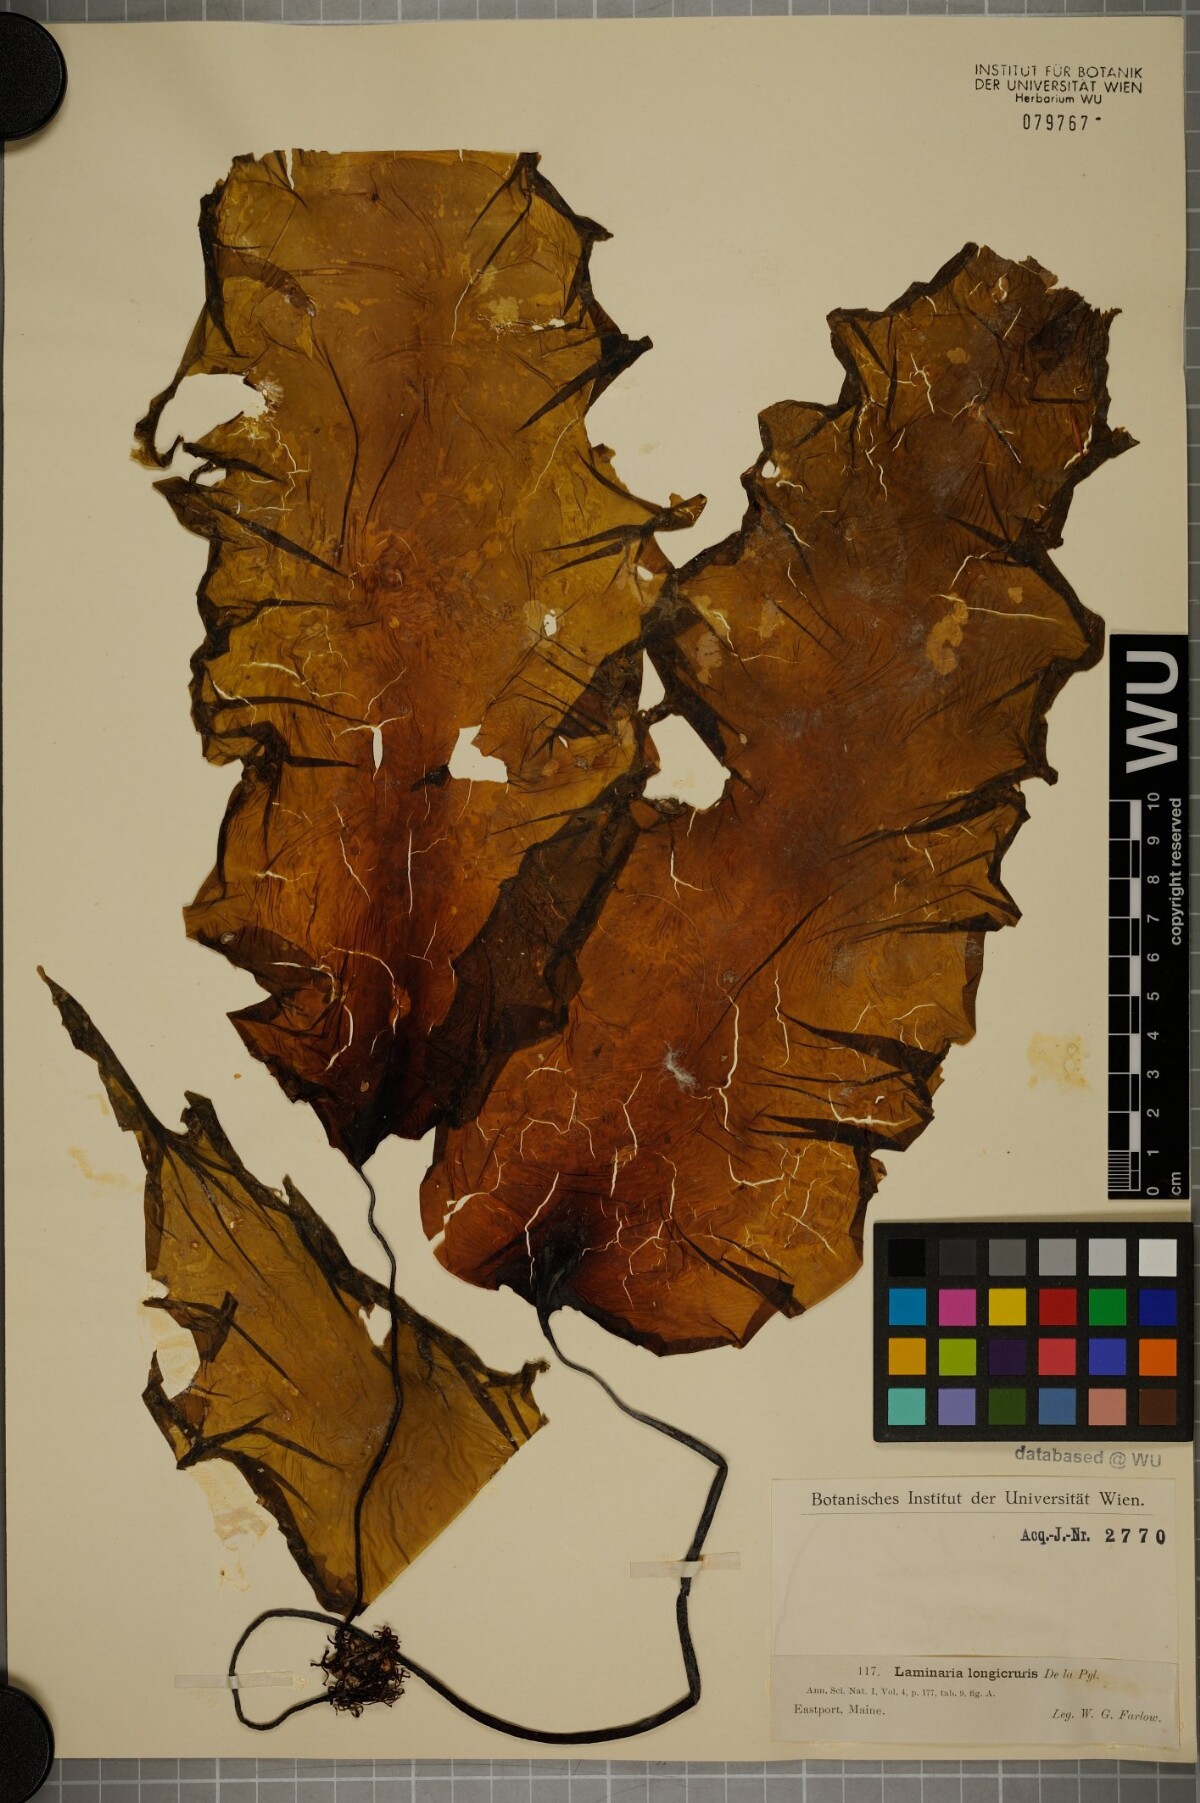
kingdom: Chromista
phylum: Ochrophyta
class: Phaeophyceae
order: Laminariales
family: Laminariaceae
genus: Saccharina
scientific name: Saccharina longicruris
